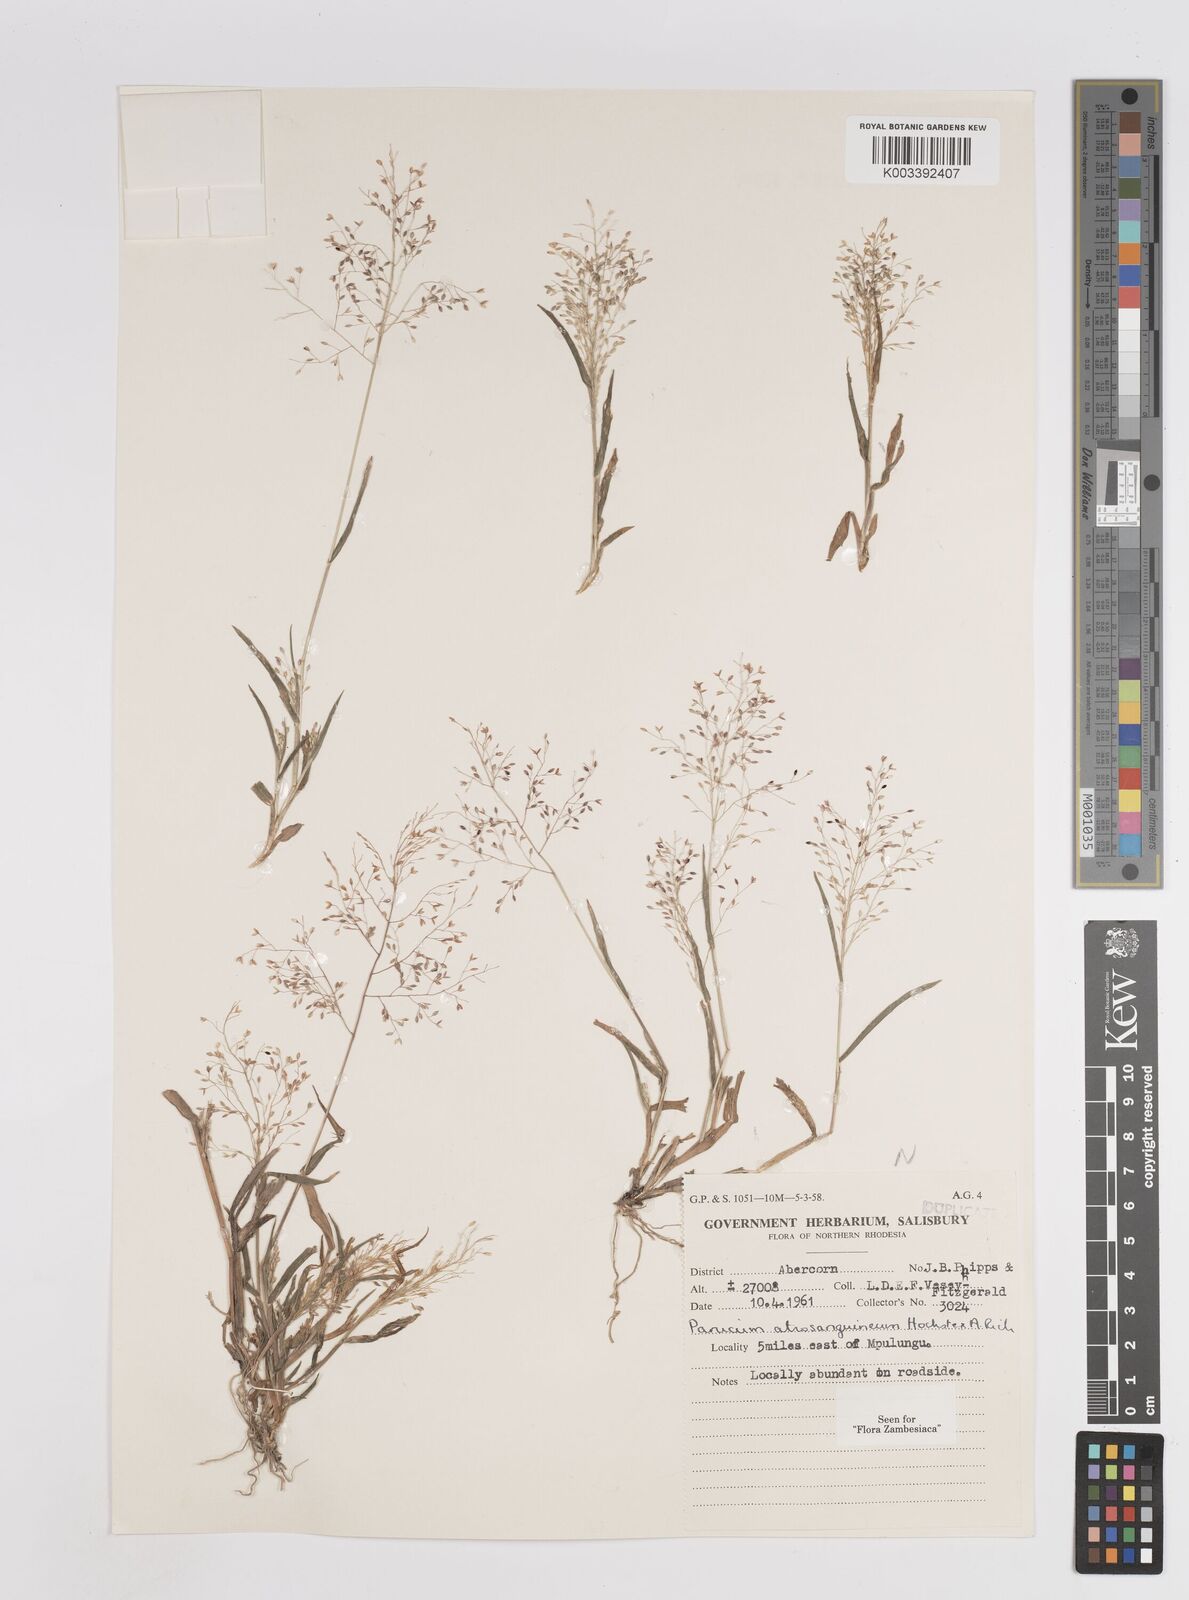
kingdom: Plantae
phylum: Tracheophyta
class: Liliopsida
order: Poales
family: Poaceae
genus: Panicum
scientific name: Panicum atrosanguineum
